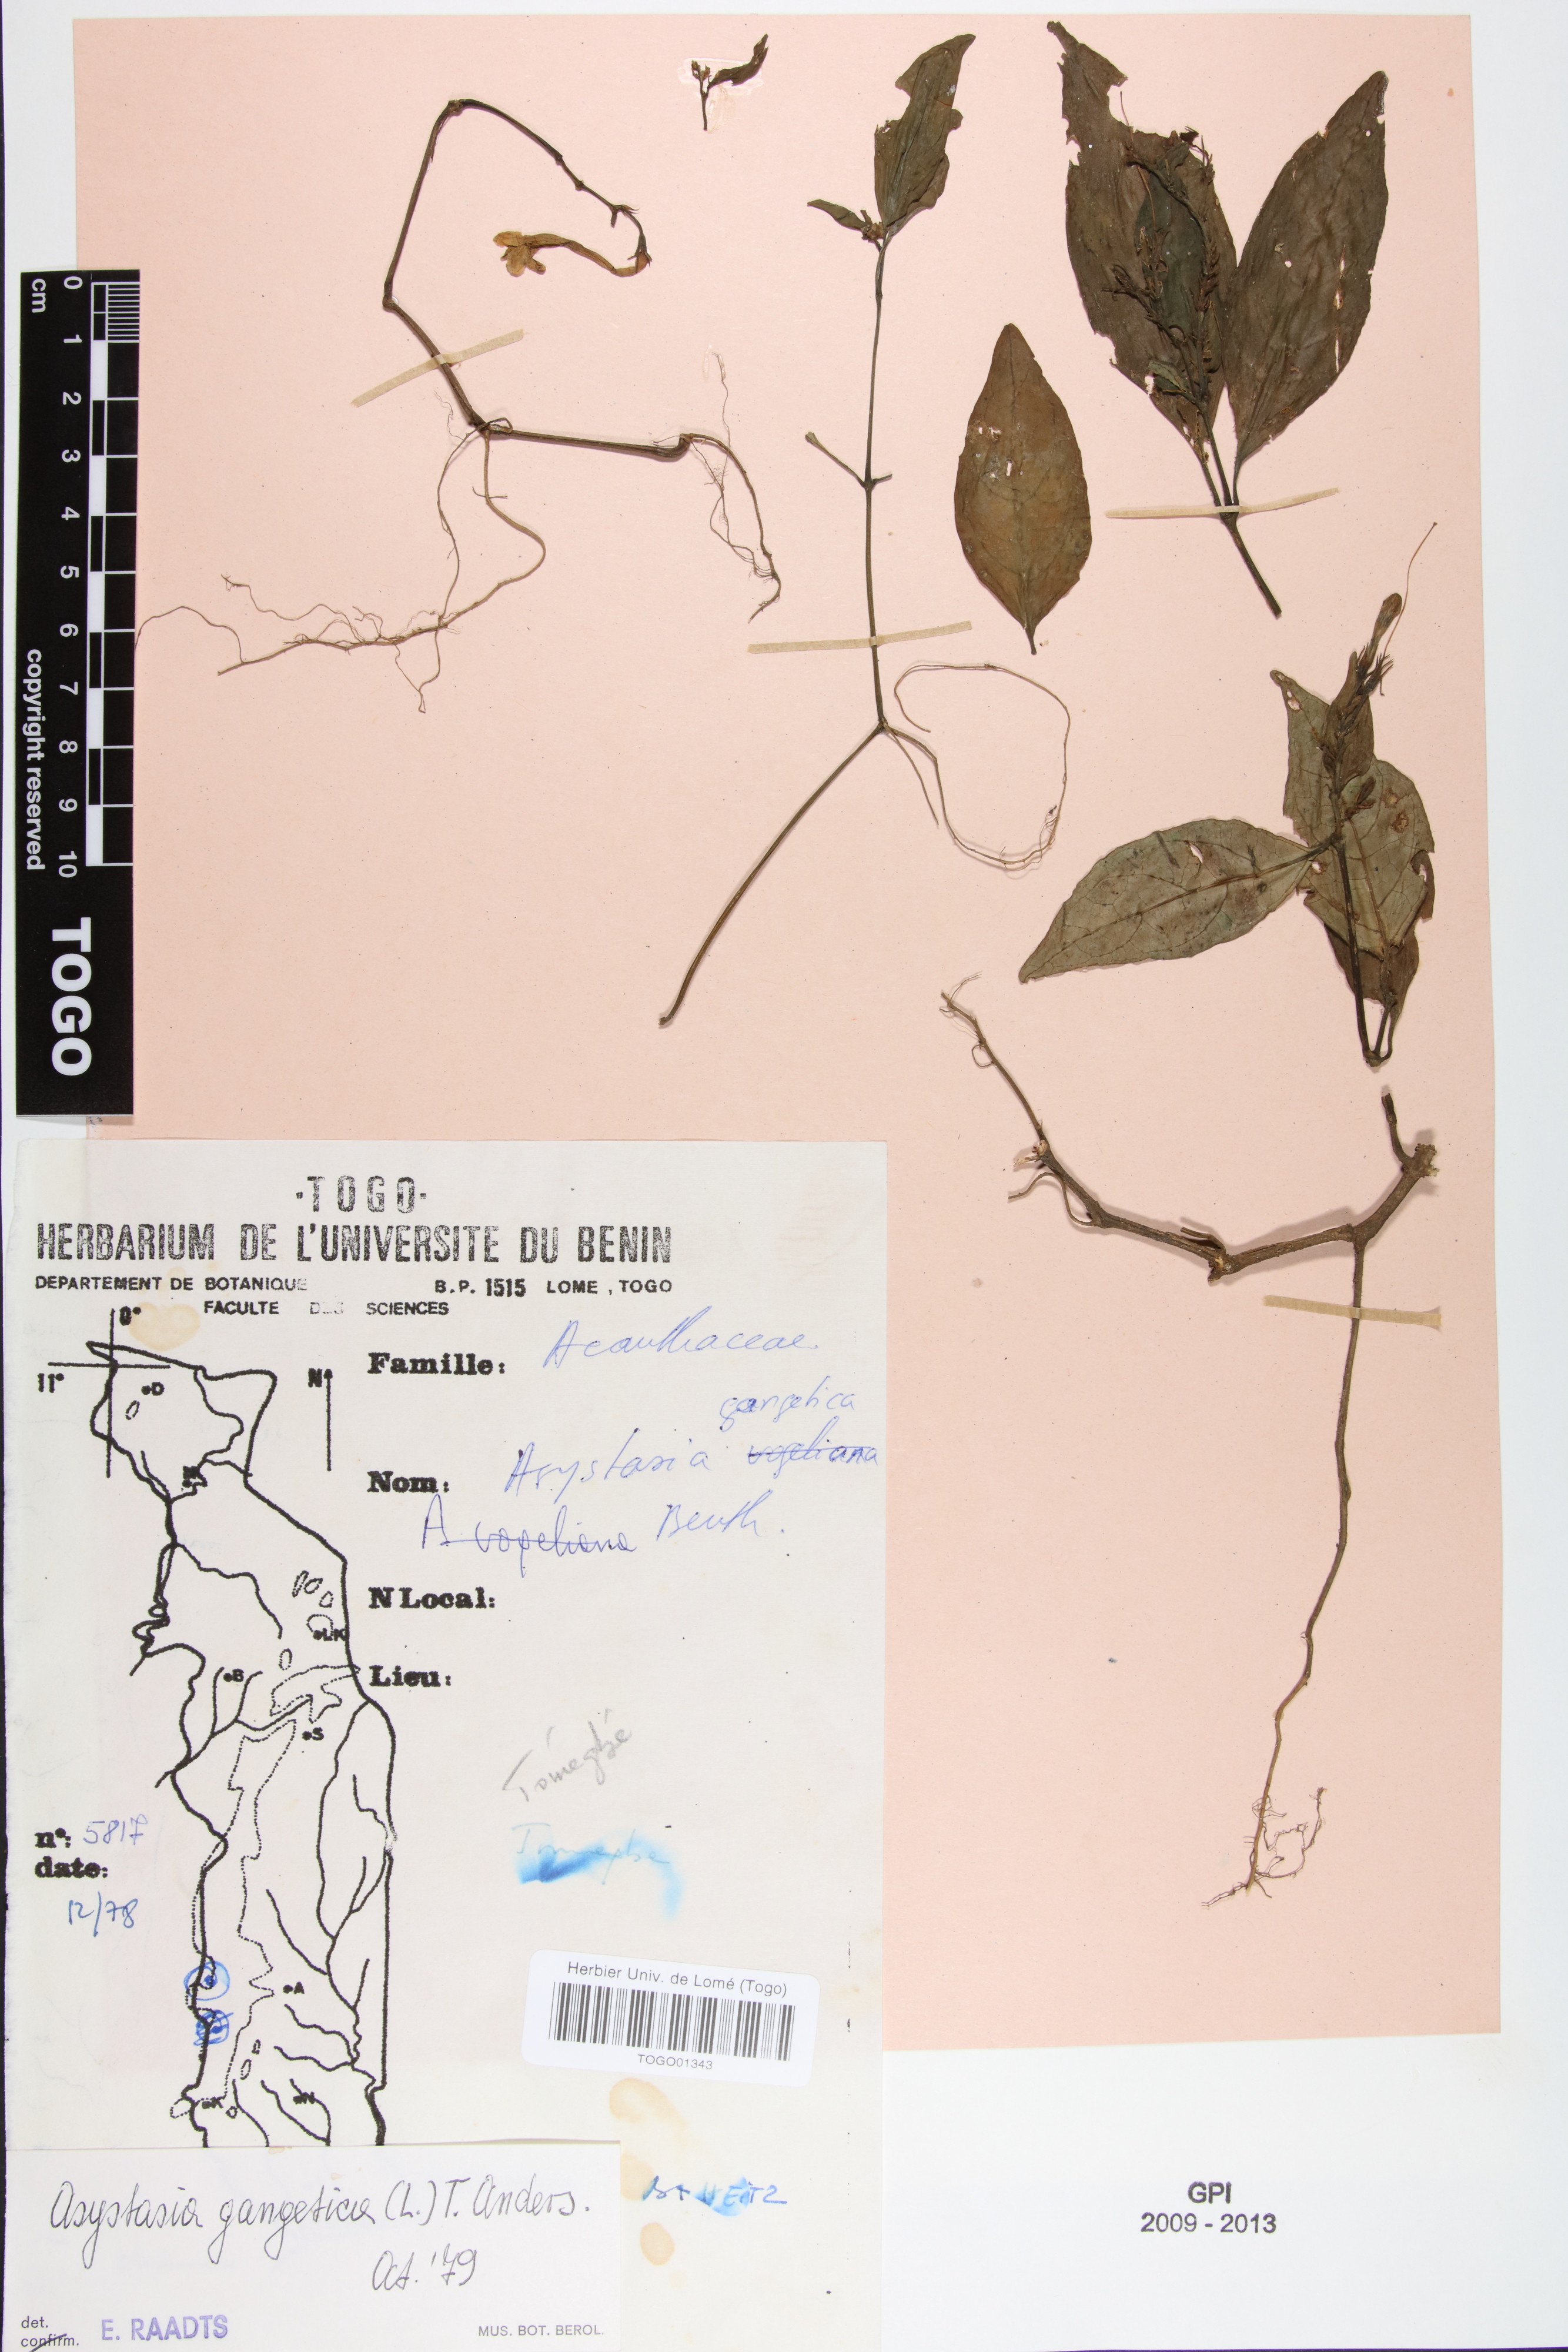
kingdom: Plantae
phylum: Tracheophyta
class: Magnoliopsida
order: Lamiales
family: Acanthaceae
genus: Asystasia
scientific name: Asystasia gangetica
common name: Chinese violet
